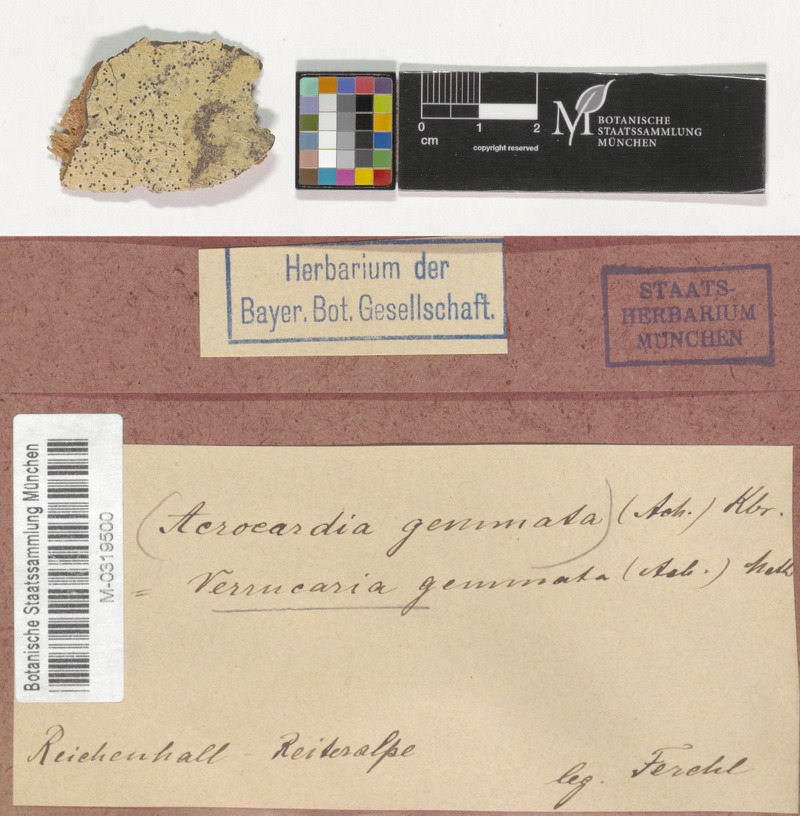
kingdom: Fungi
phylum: Ascomycota
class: Dothideomycetes
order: Monoblastiales
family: Monoblastiaceae
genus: Acrocordia
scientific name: Acrocordia gemmata
